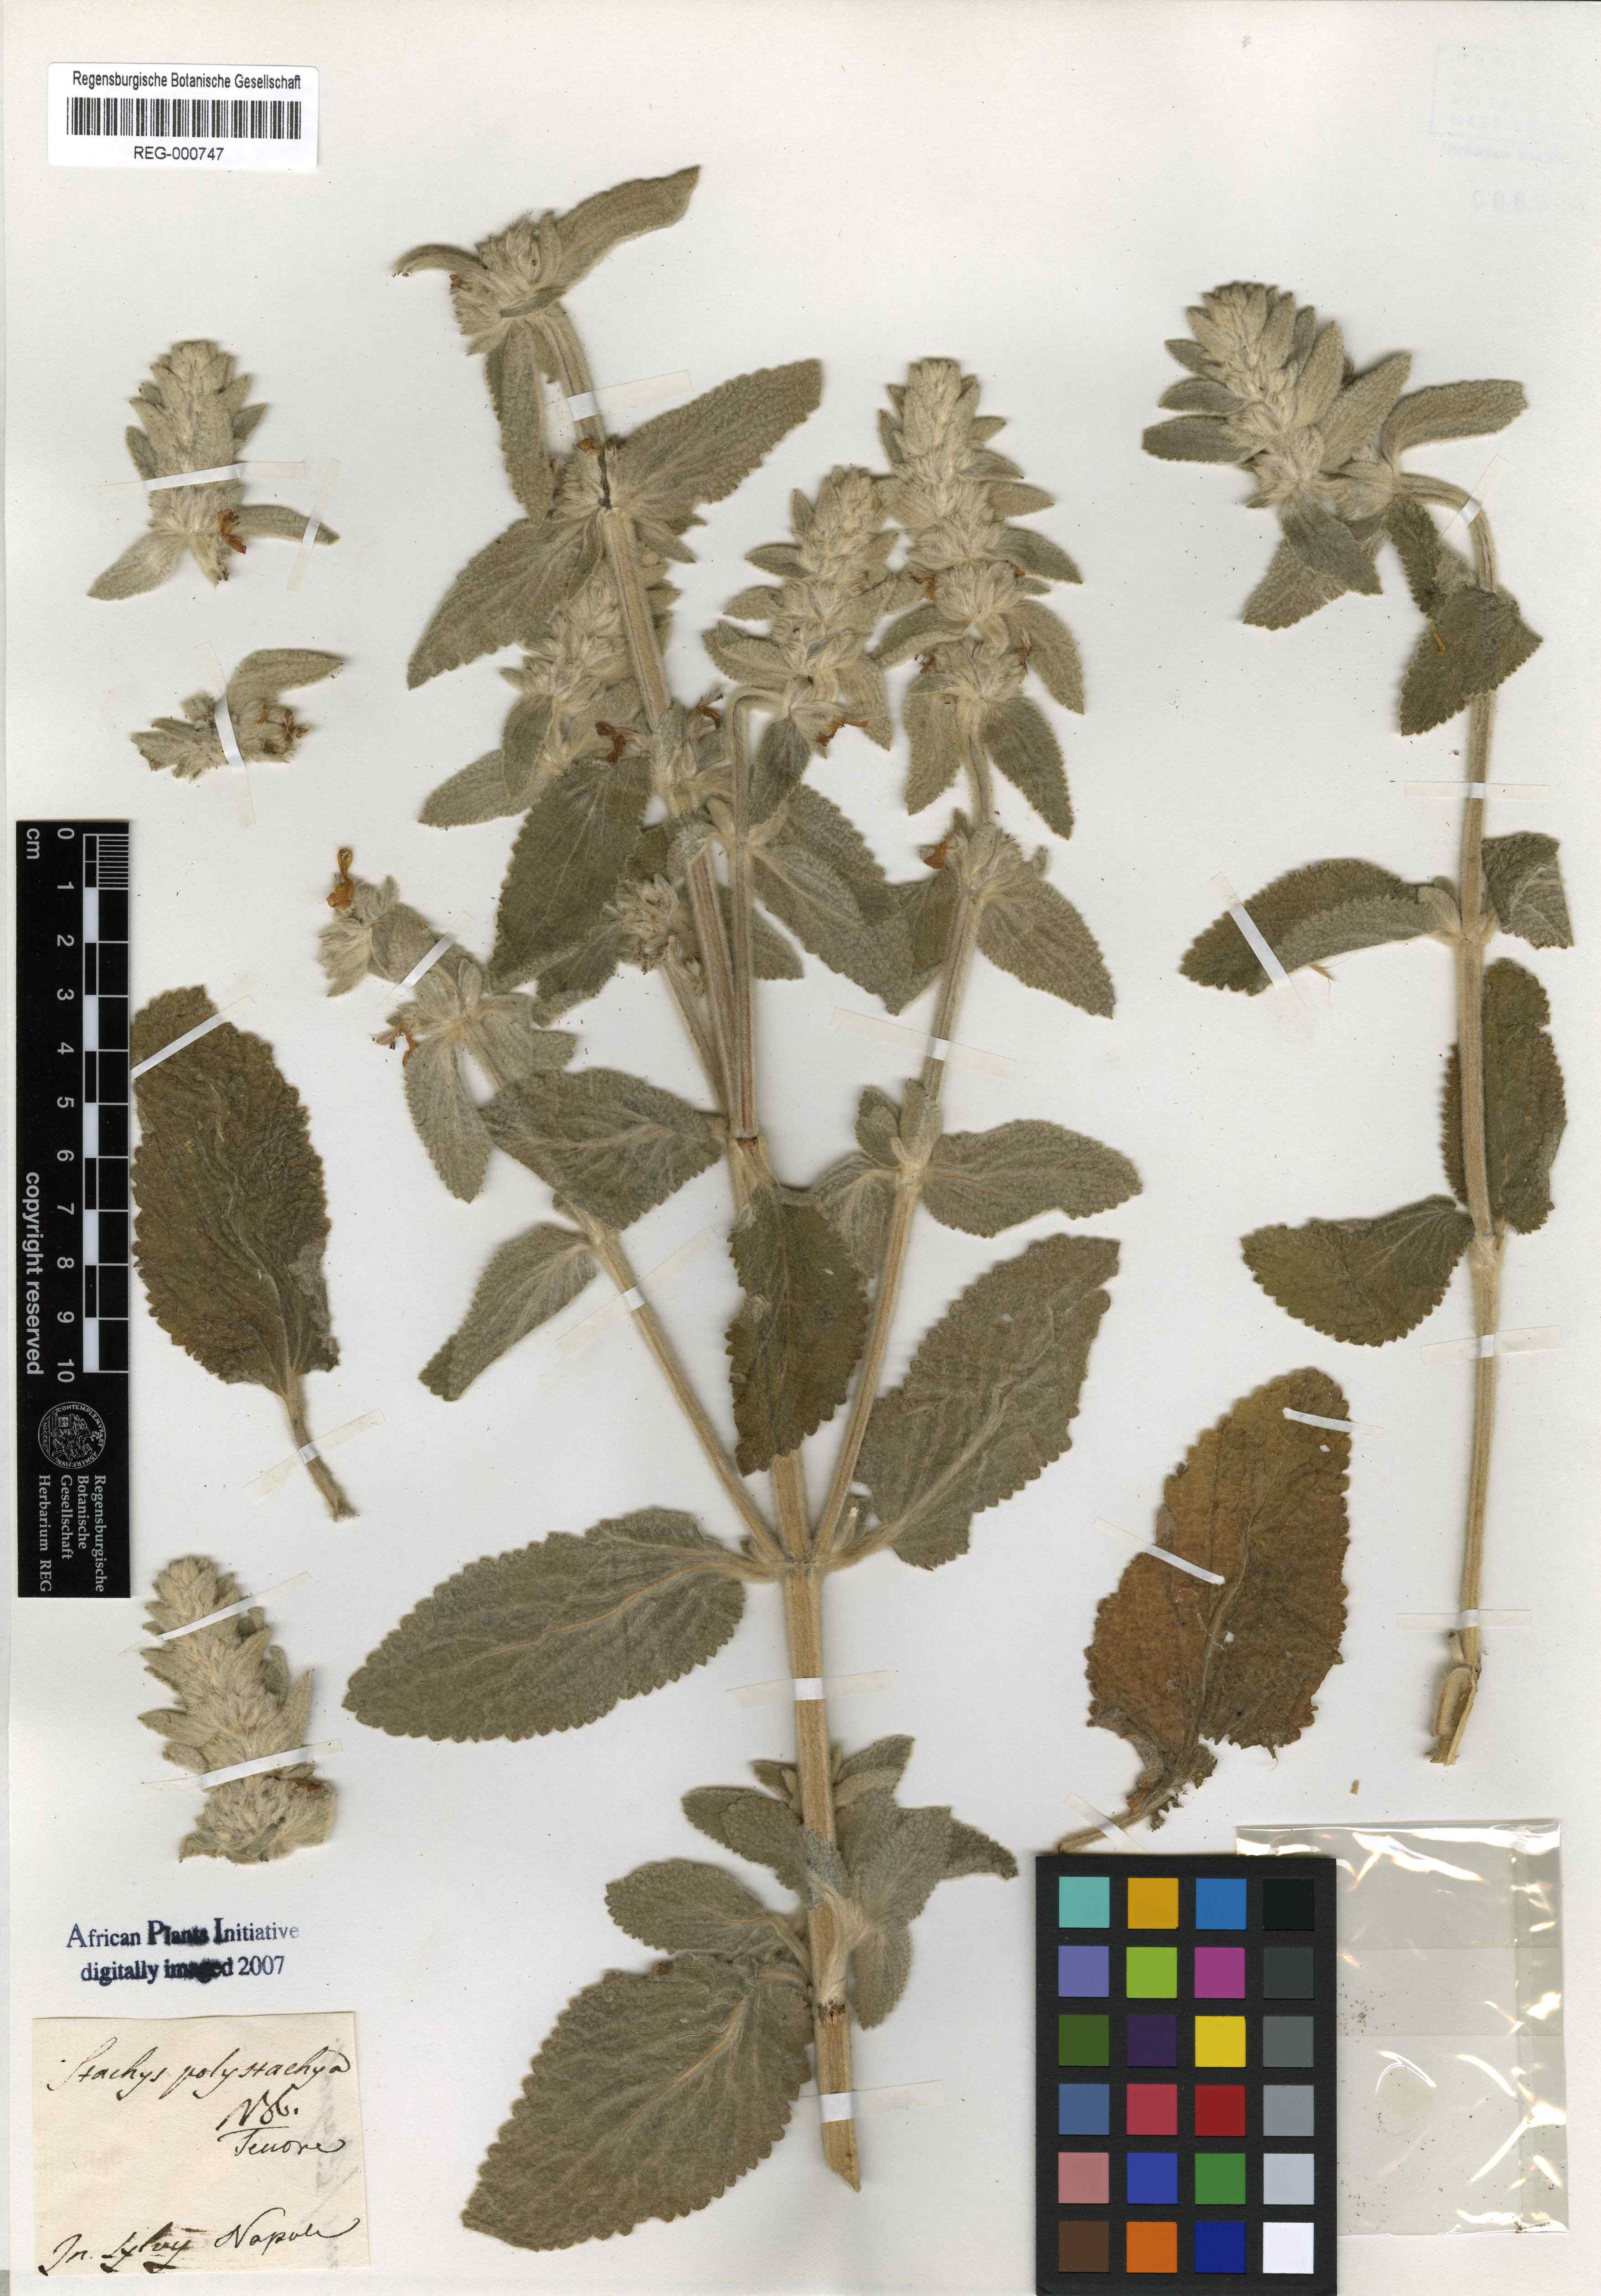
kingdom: Plantae
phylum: Tracheophyta
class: Magnoliopsida
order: Lamiales
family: Lamiaceae
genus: Stachys
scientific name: Stachys germanica
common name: Downy woundwort
